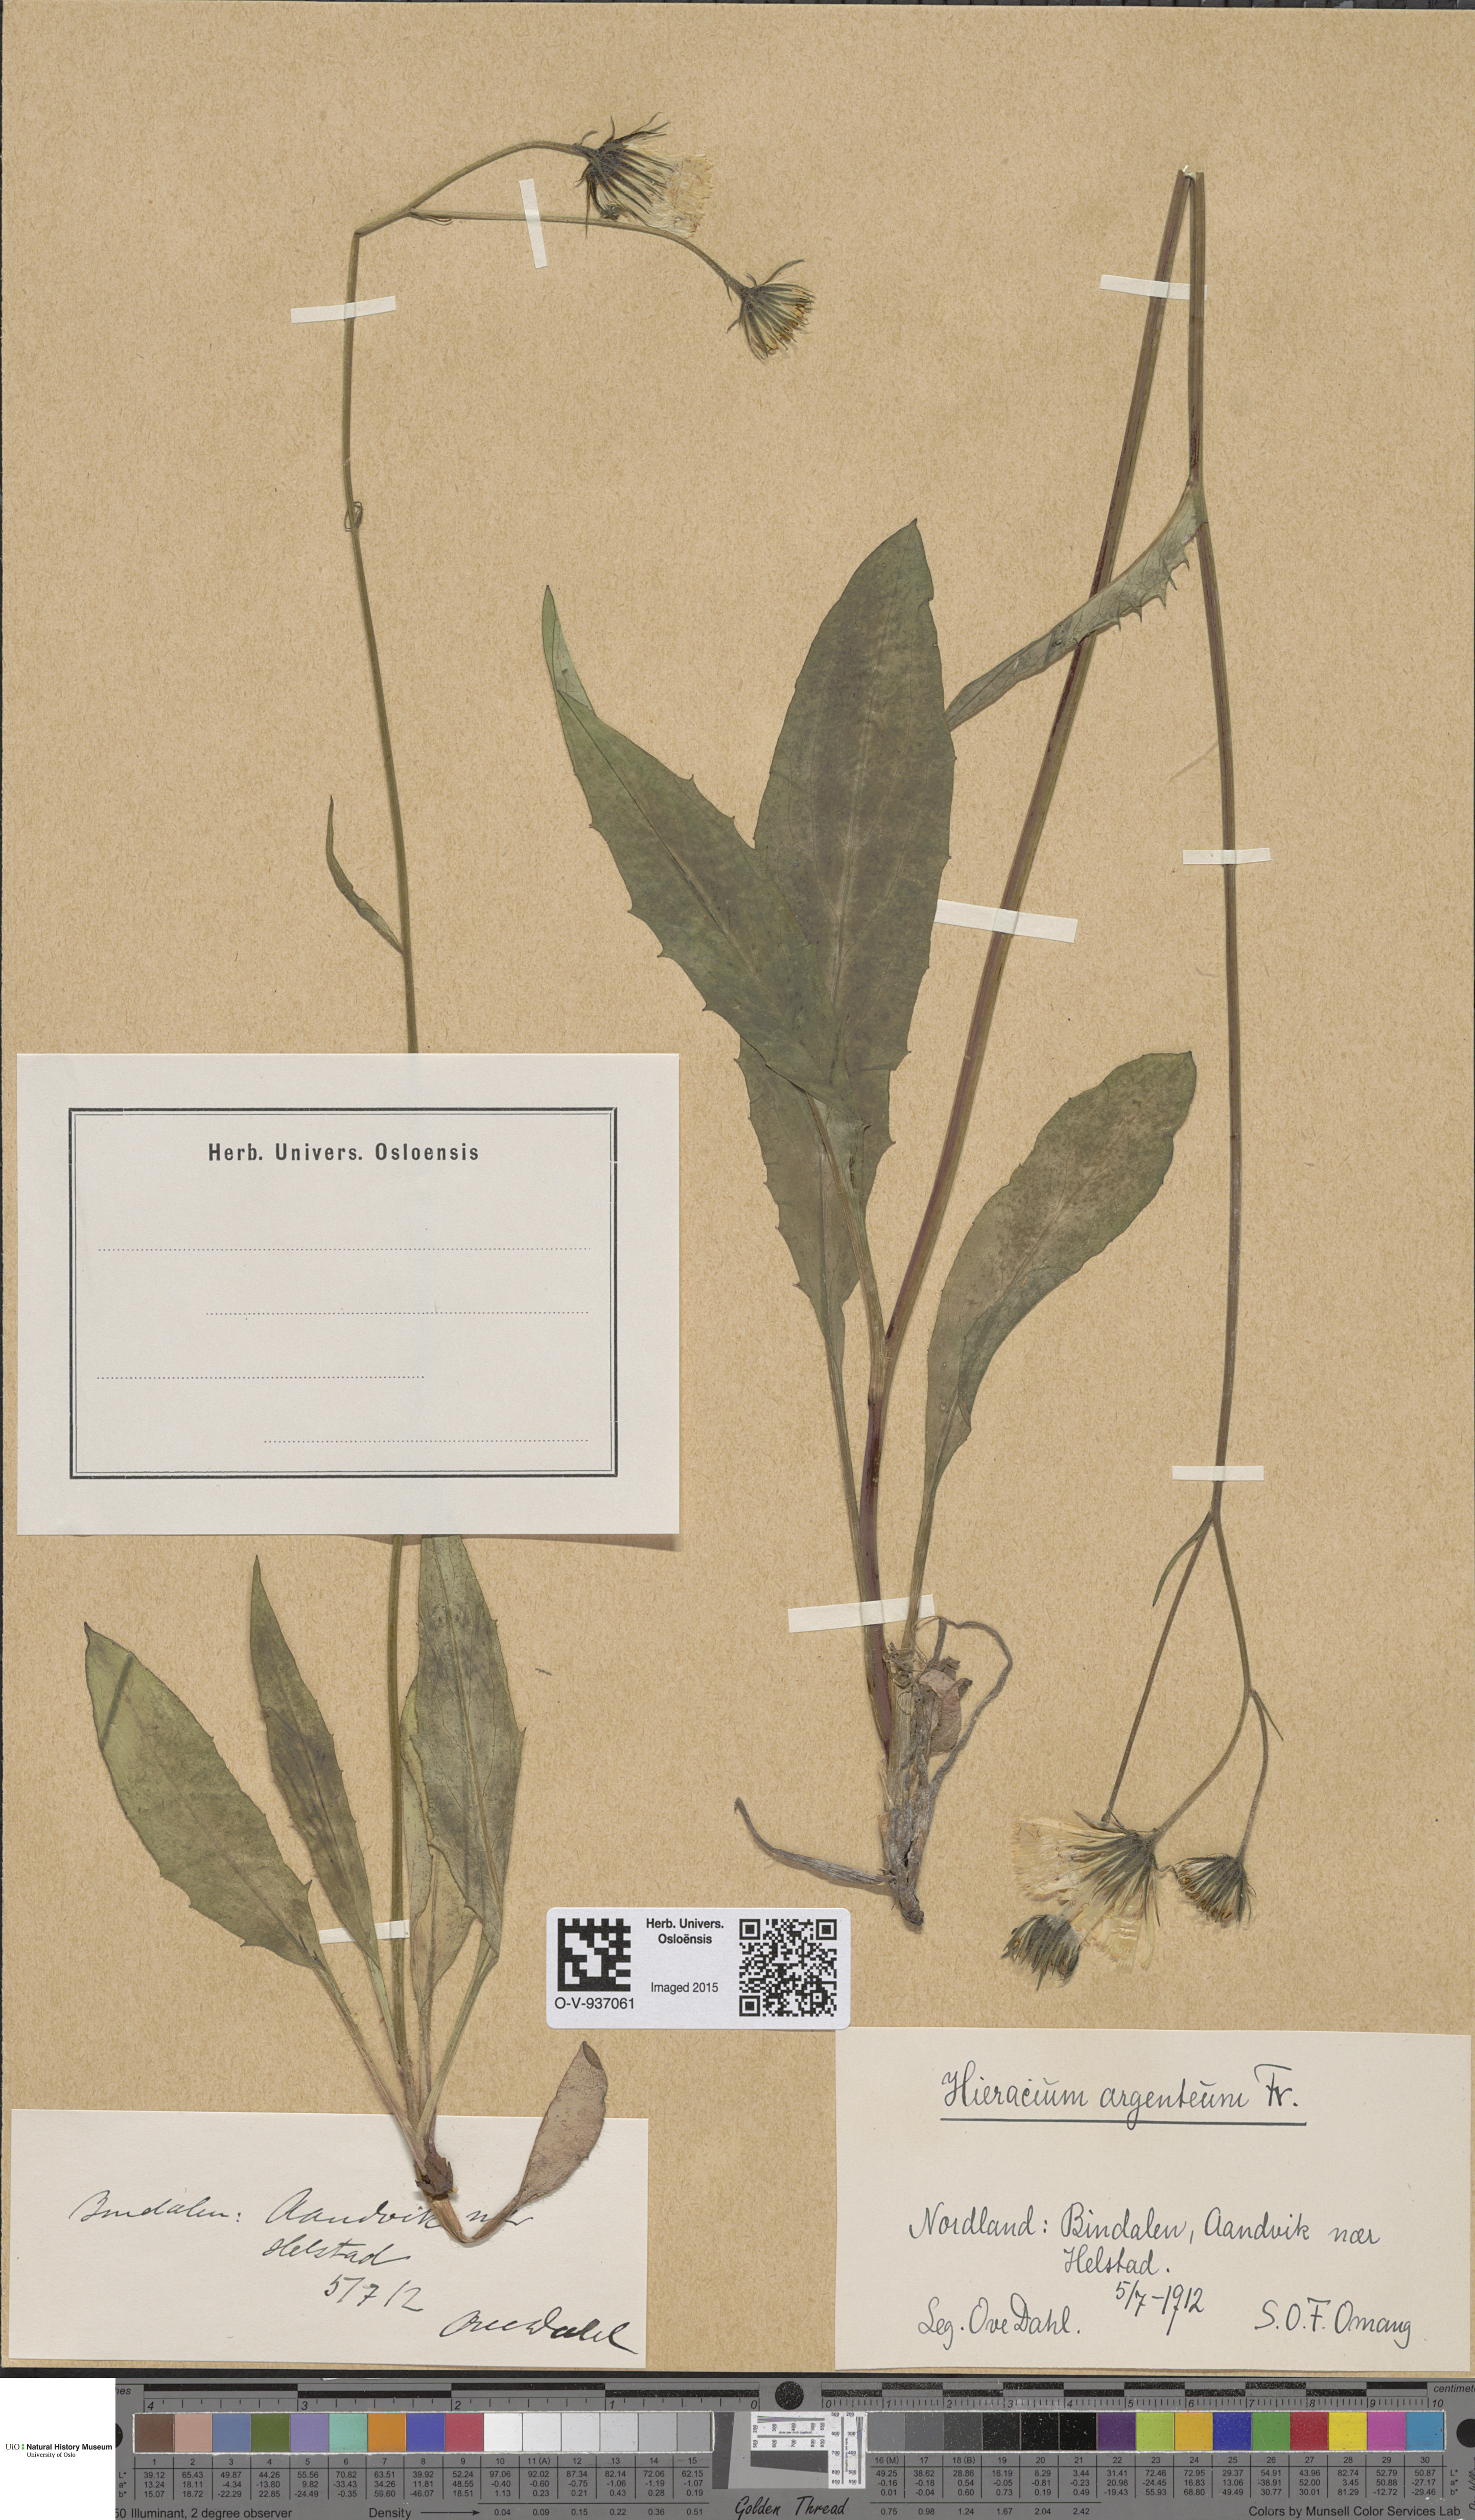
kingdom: Plantae
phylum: Tracheophyta
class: Magnoliopsida
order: Asterales
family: Asteraceae
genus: Hieracium
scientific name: Hieracium argenteum
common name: Silver hawkweed
